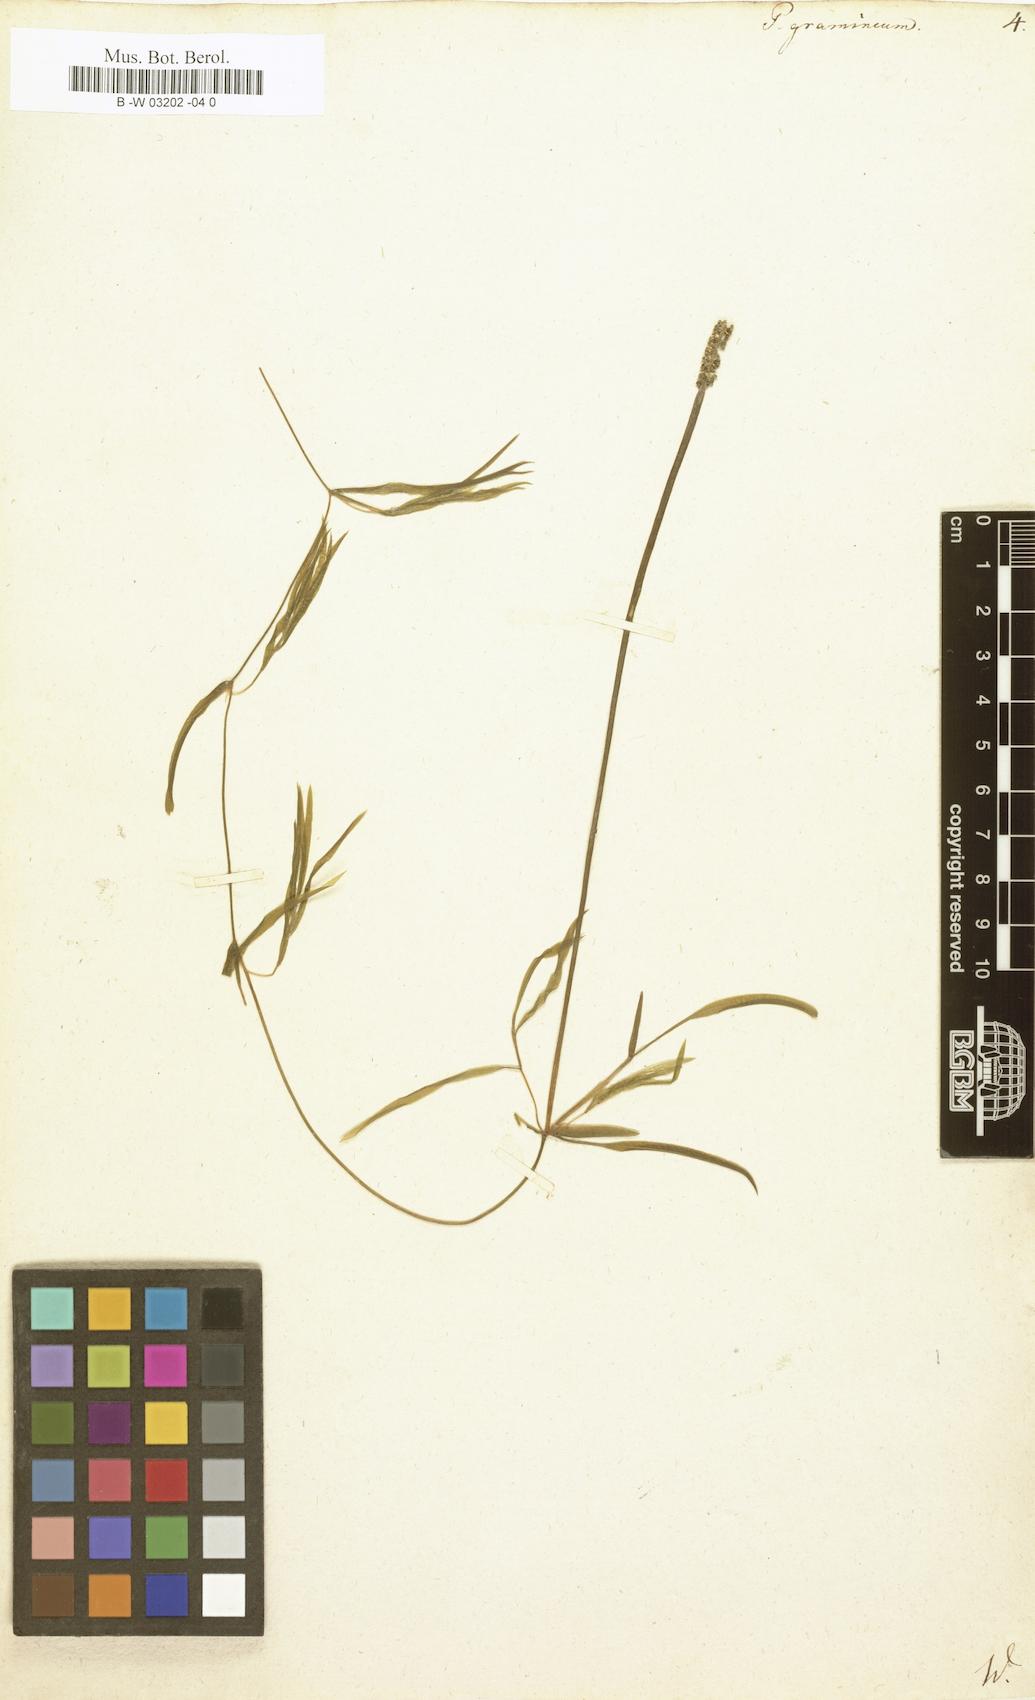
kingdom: Plantae
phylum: Tracheophyta
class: Liliopsida
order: Alismatales
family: Potamogetonaceae
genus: Potamogeton
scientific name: Potamogeton gramineus
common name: Various-leaved pondweed
